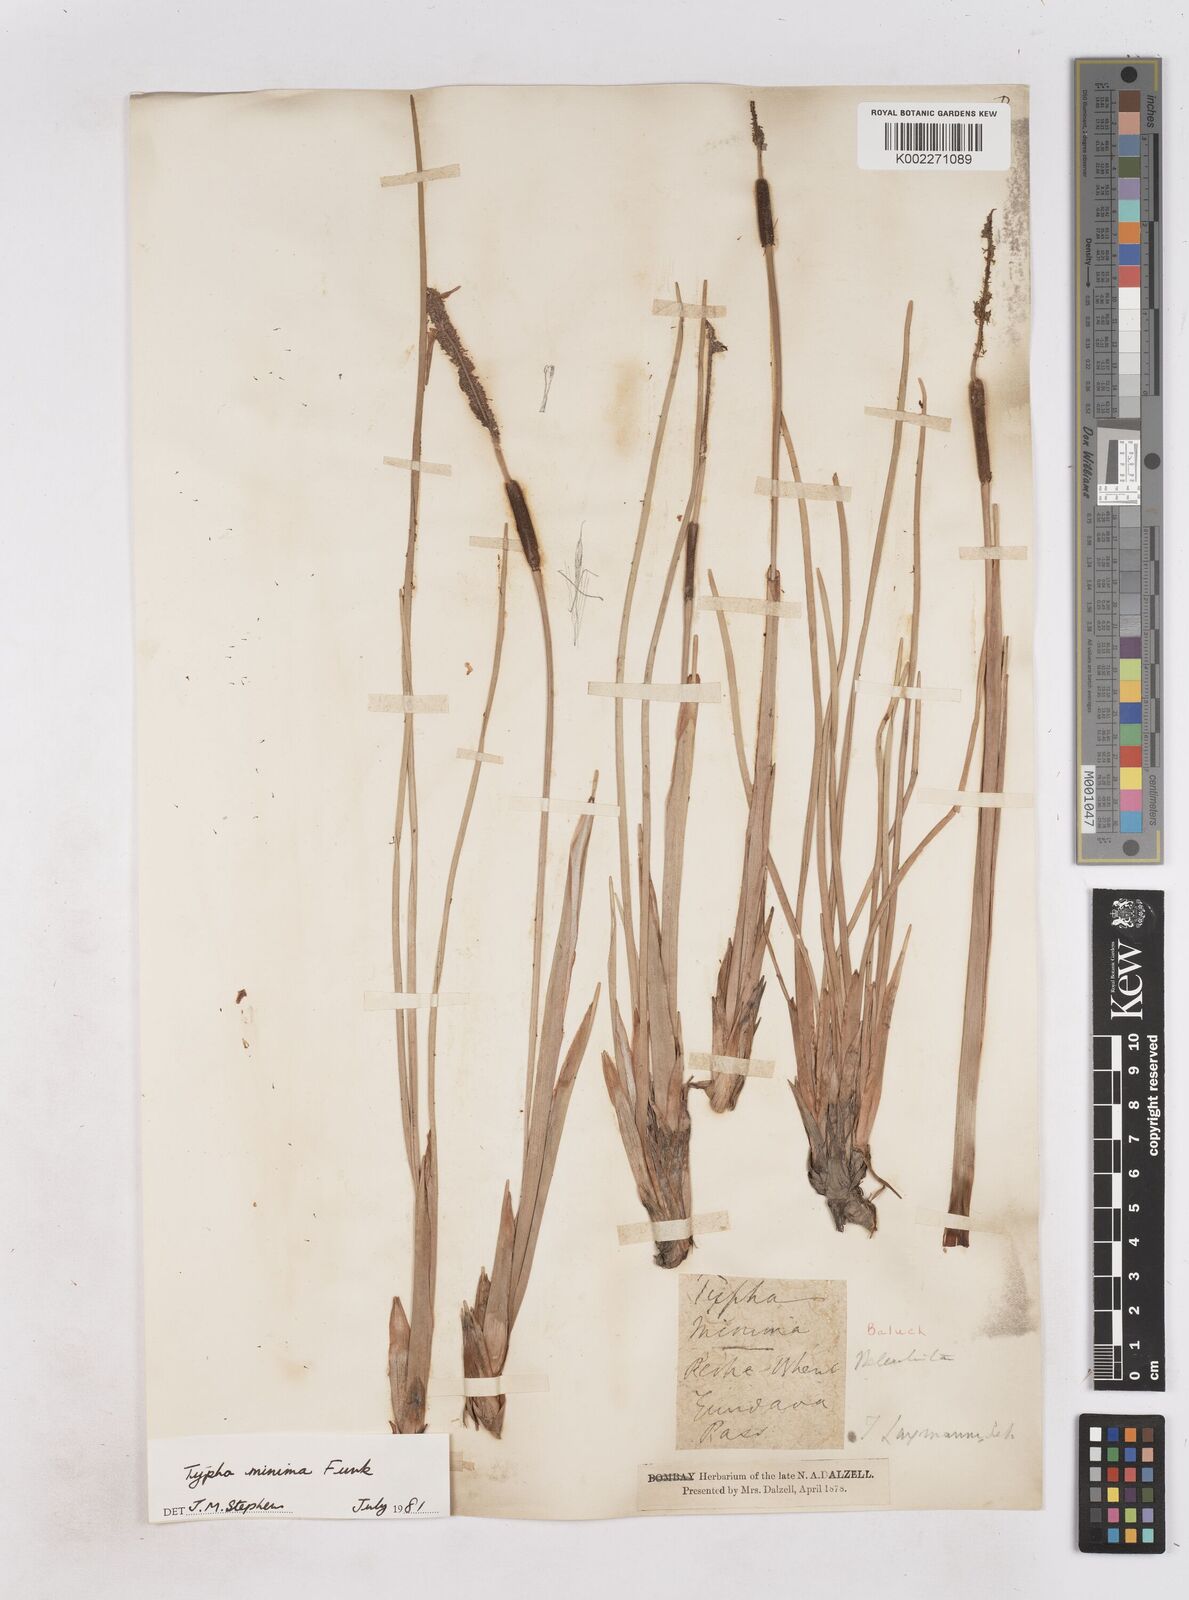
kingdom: Plantae
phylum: Tracheophyta
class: Liliopsida
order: Poales
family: Typhaceae
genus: Typha
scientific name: Typha minima
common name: Dwarf bulrush
